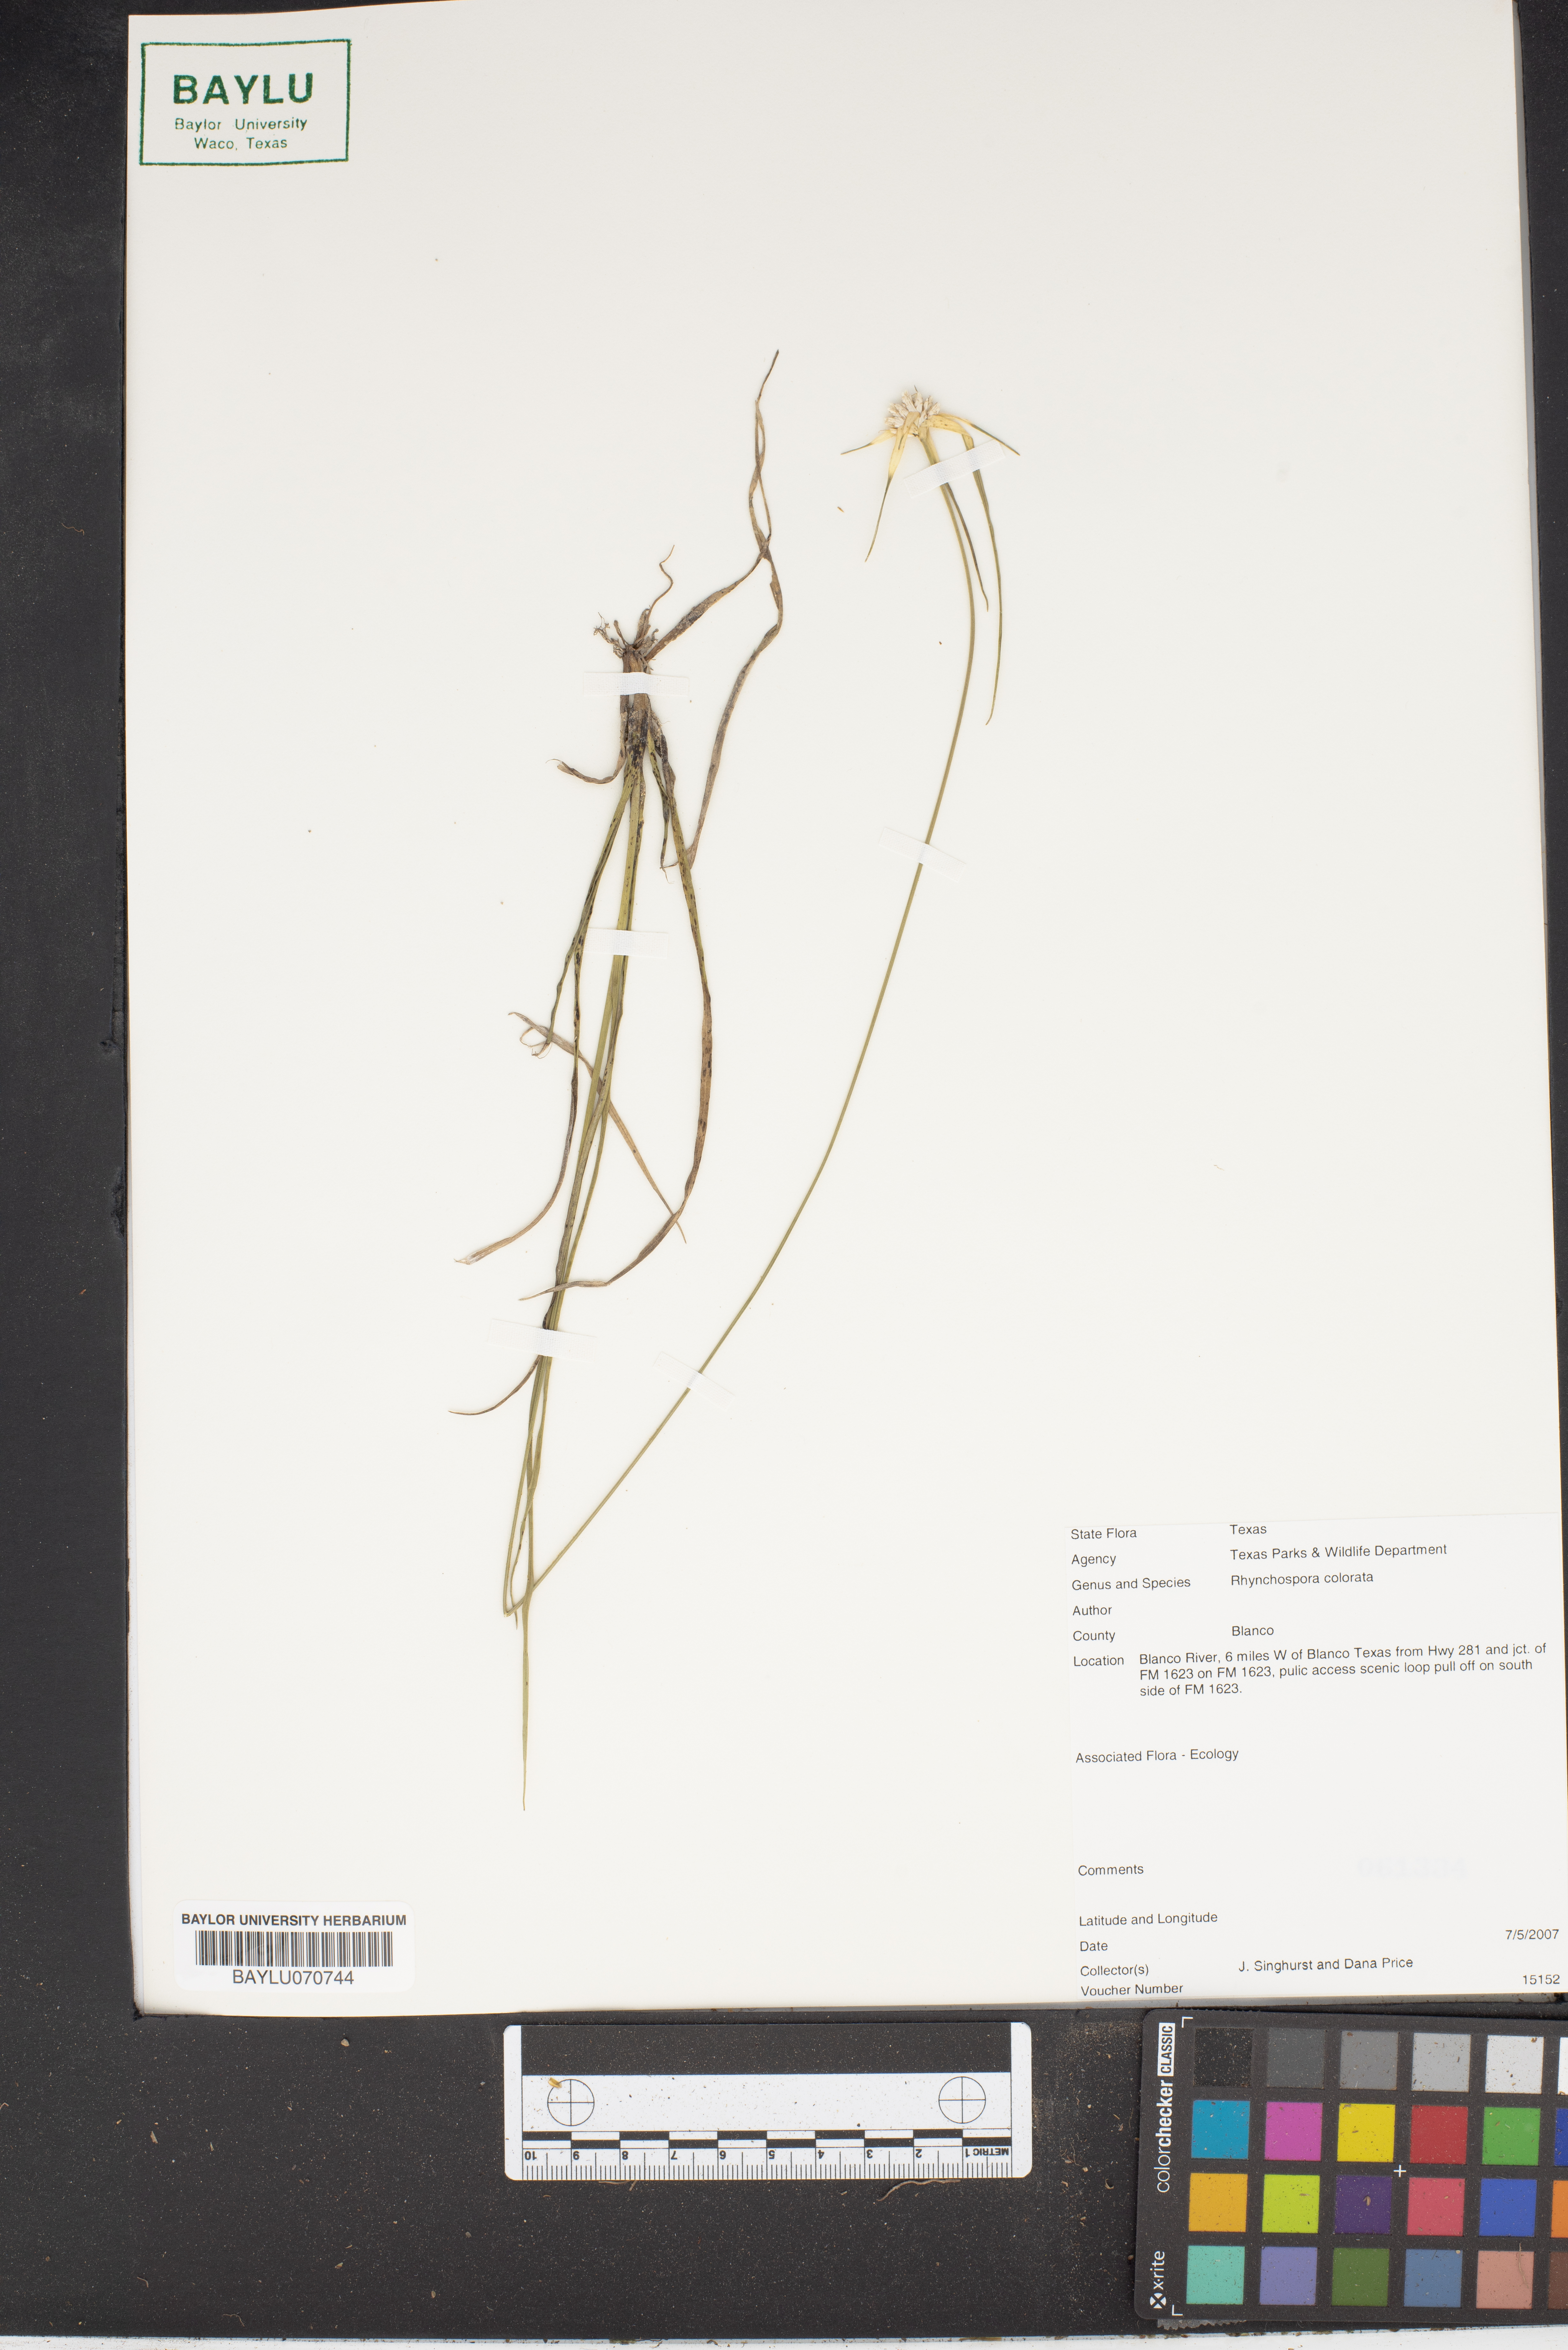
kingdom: Plantae
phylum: Tracheophyta
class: Liliopsida
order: Poales
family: Cyperaceae
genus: Rhynchospora
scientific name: Rhynchospora colorata
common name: Star sedge
